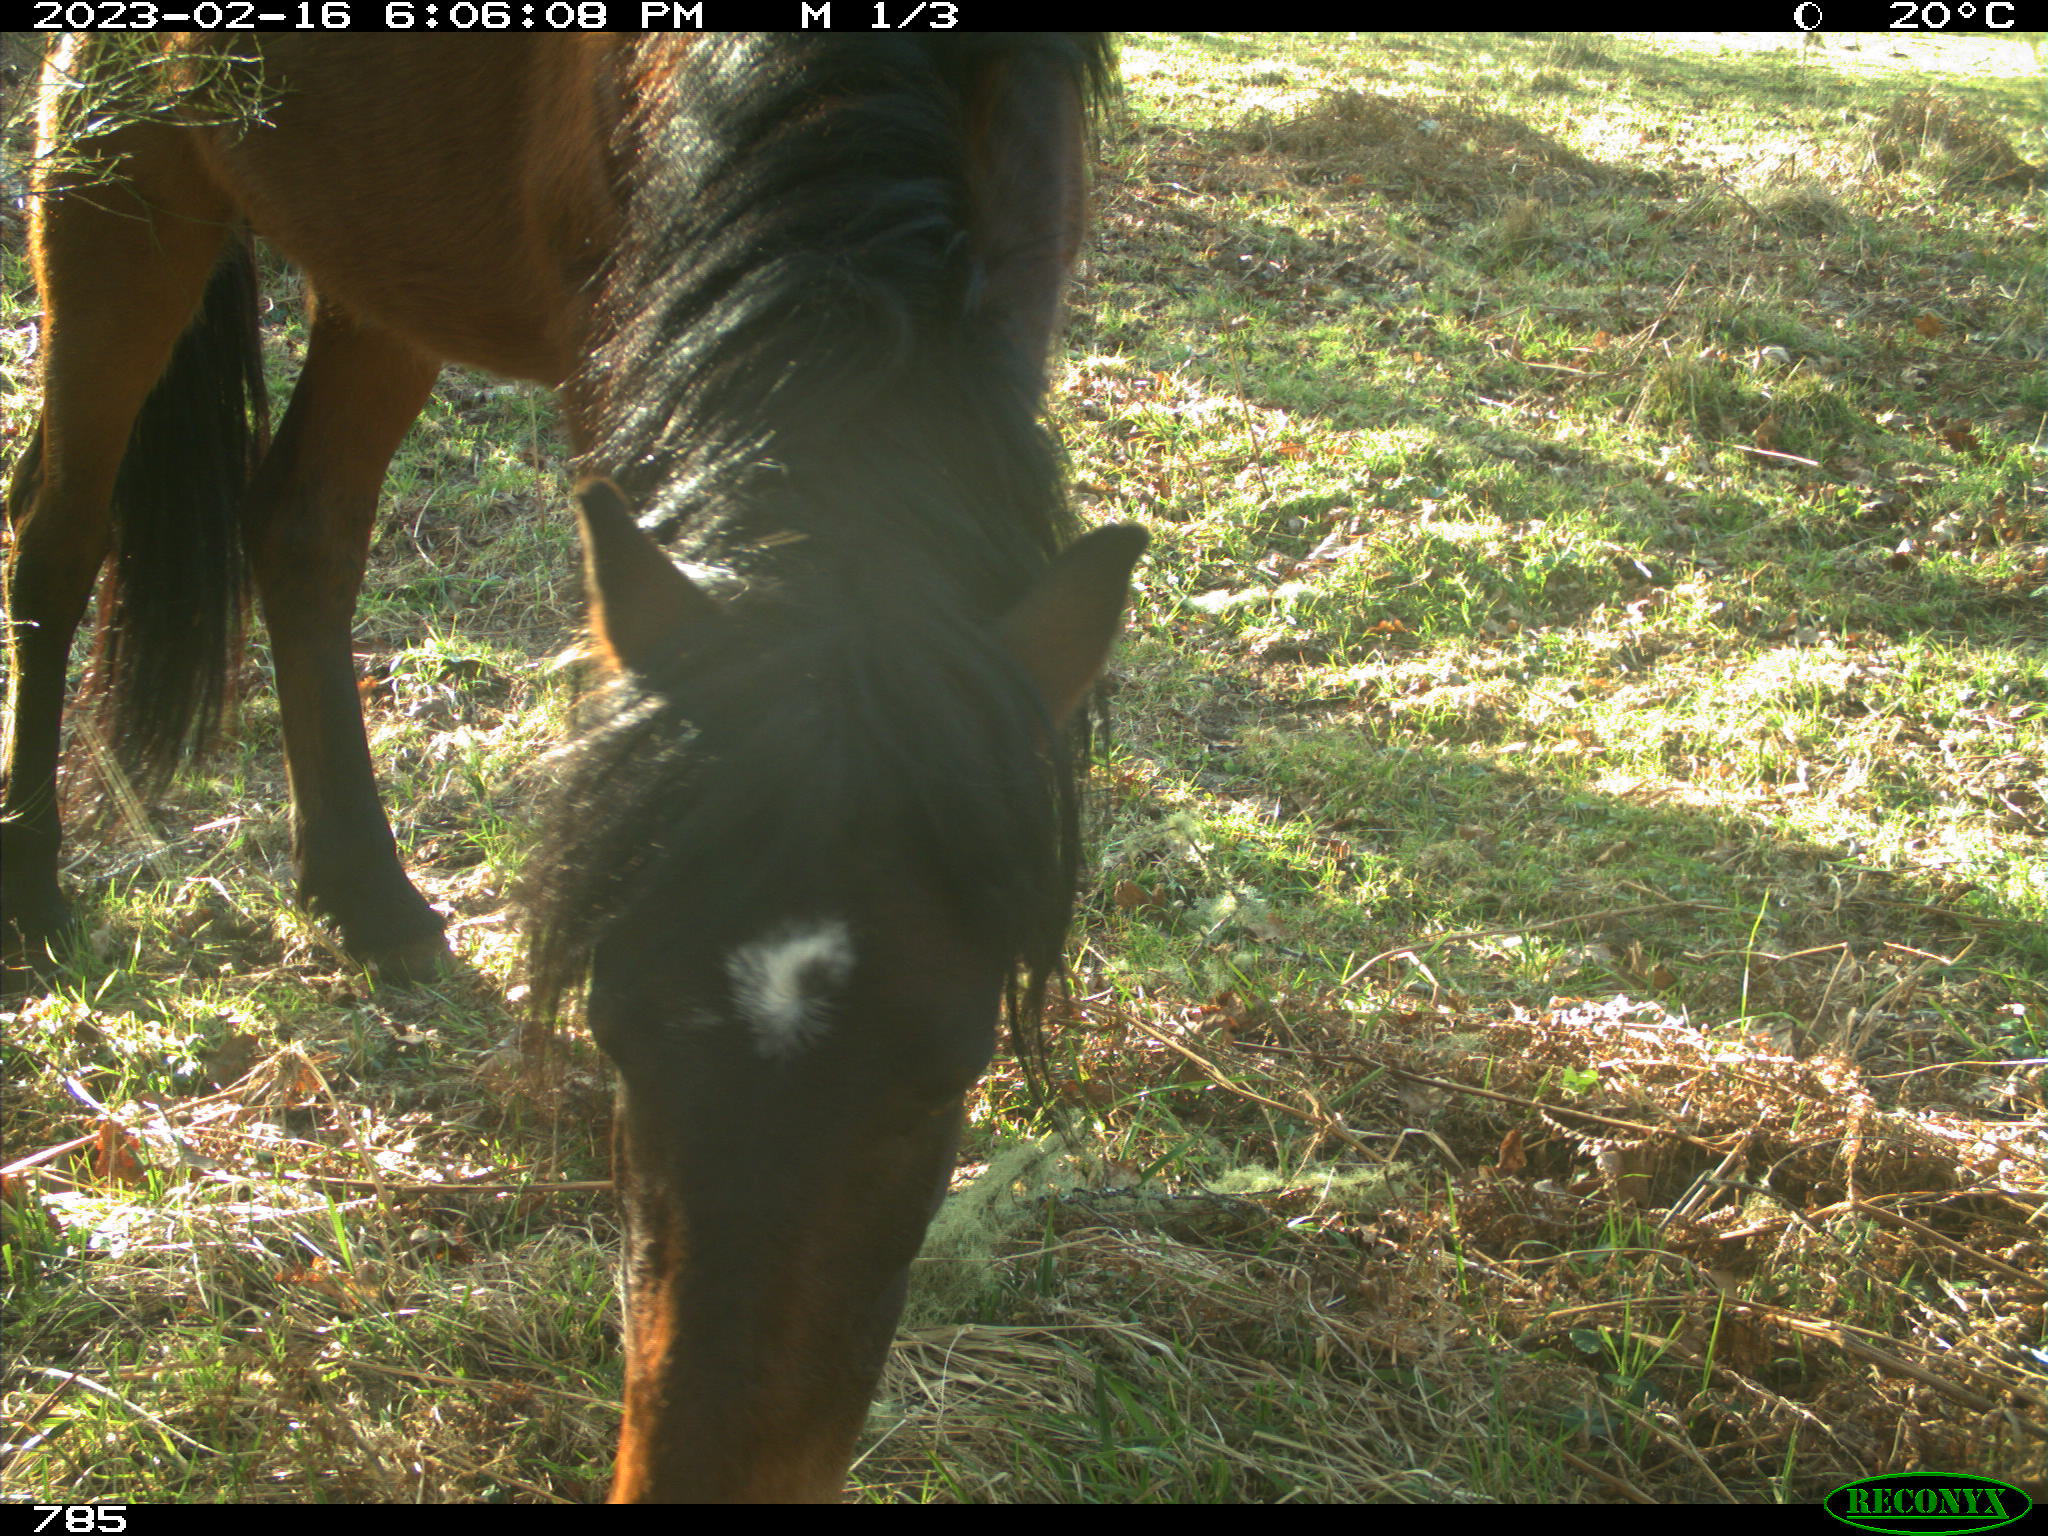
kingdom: Animalia
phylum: Chordata
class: Mammalia
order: Perissodactyla
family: Equidae
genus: Equus
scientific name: Equus caballus
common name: Horse
